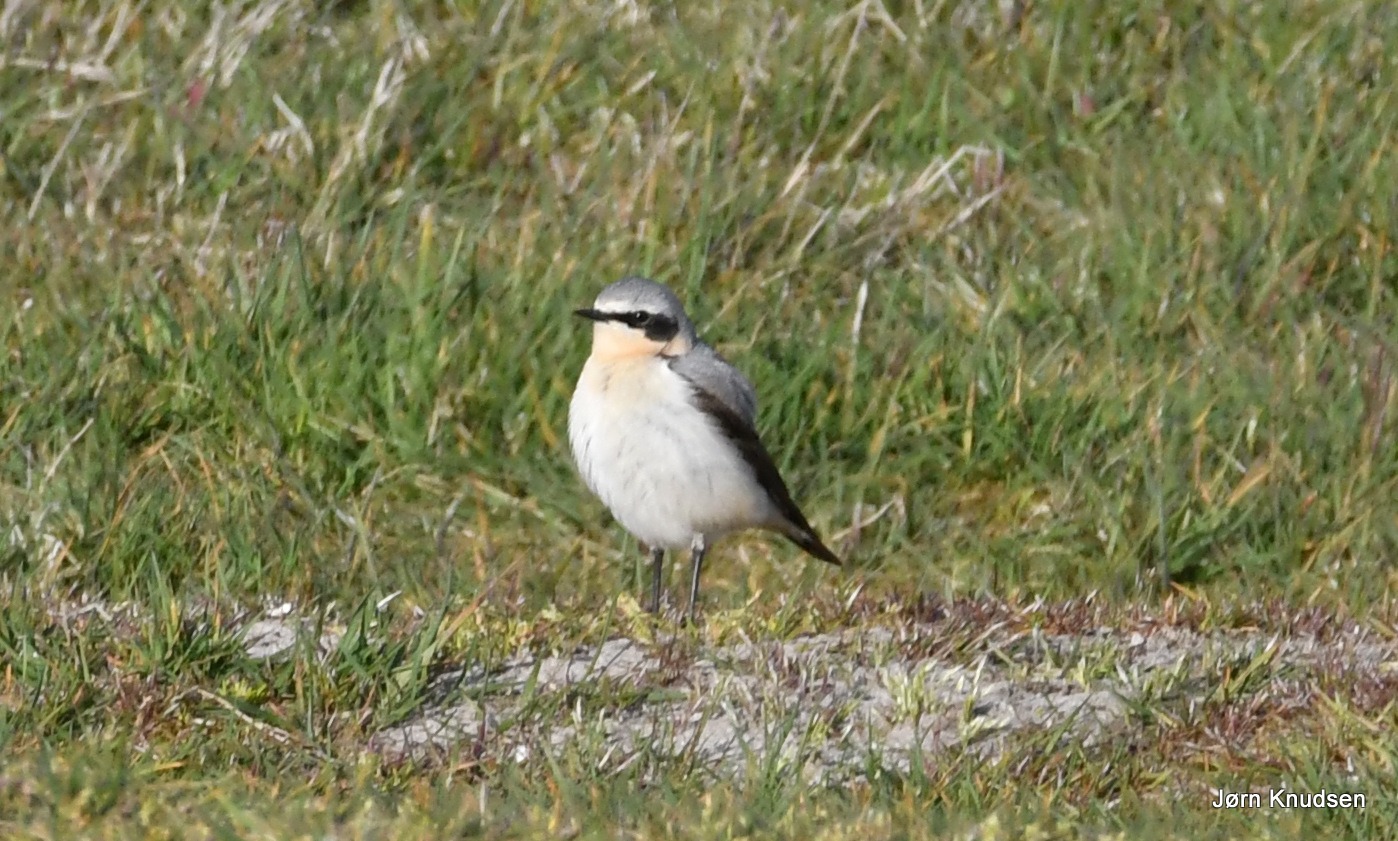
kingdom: Animalia
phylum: Chordata
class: Aves
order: Passeriformes
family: Muscicapidae
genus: Oenanthe
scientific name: Oenanthe oenanthe
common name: Stenpikker
